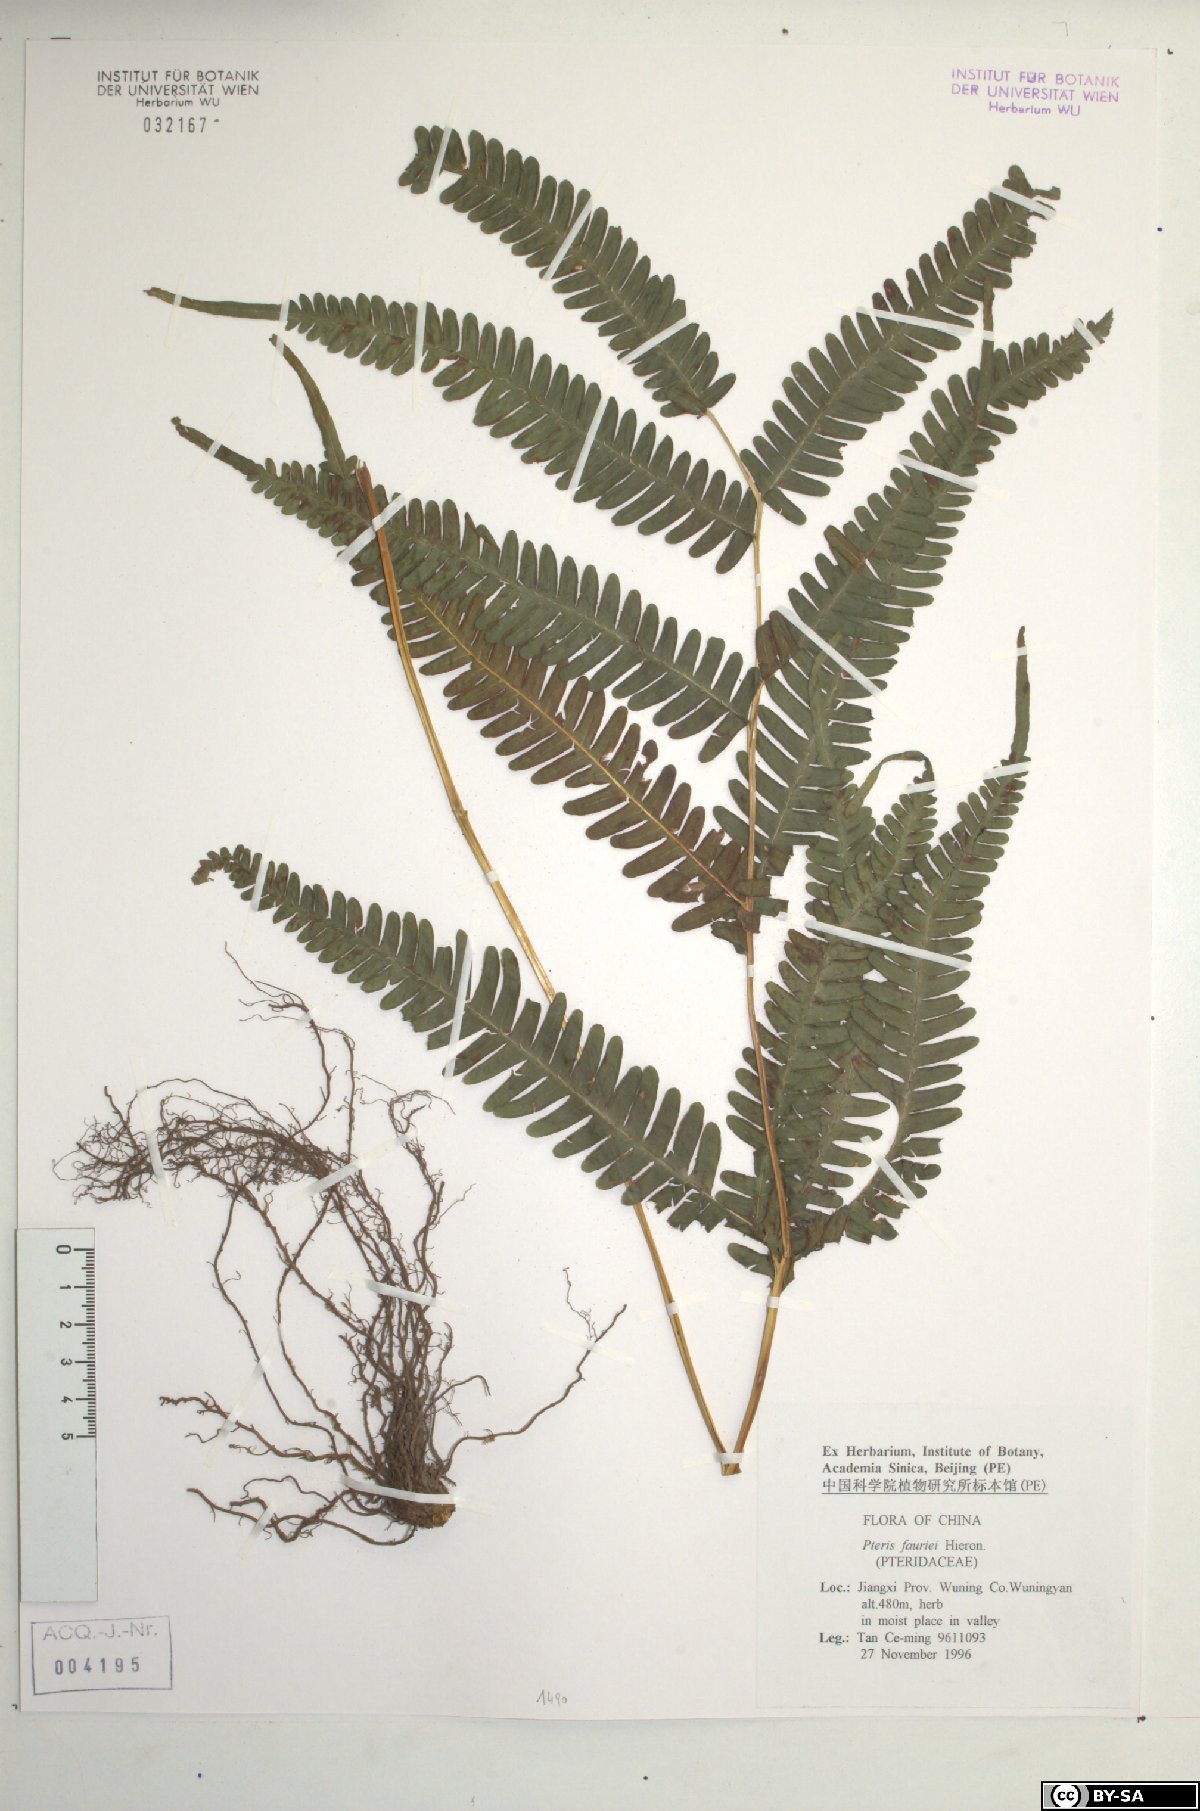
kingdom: Plantae
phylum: Tracheophyta
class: Polypodiopsida
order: Polypodiales
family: Pteridaceae
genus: Pteris
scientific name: Pteris fauriei
